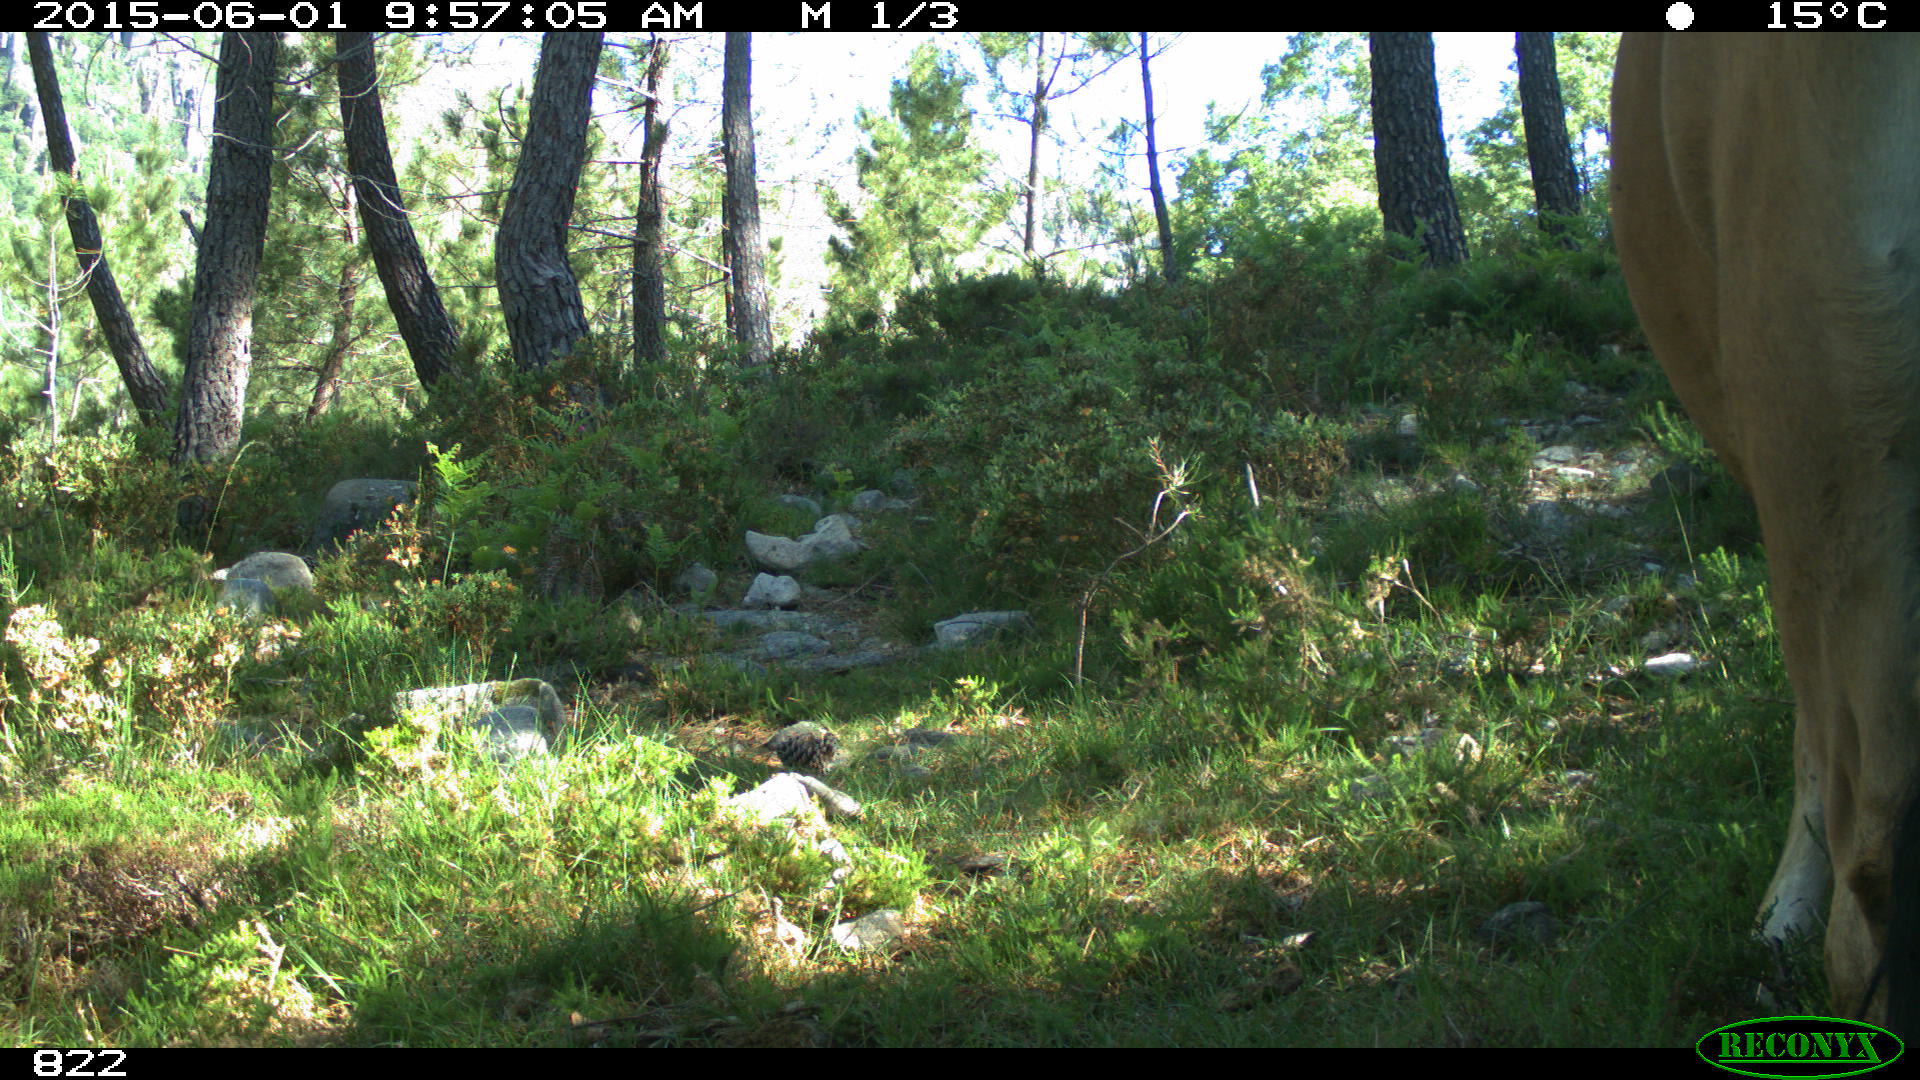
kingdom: Animalia
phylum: Chordata
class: Mammalia
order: Artiodactyla
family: Bovidae
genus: Bos
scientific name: Bos taurus
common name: Domesticated cattle
